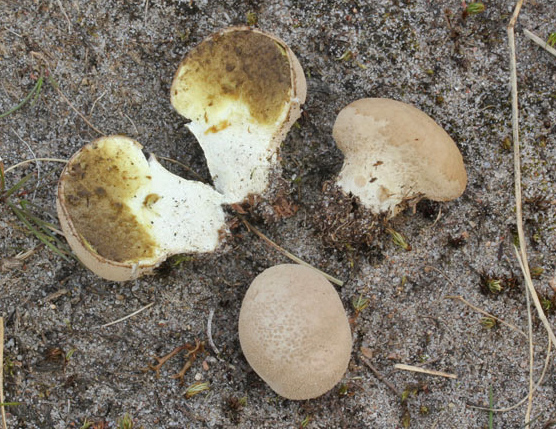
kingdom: Fungi
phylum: Basidiomycota
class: Agaricomycetes
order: Agaricales
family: Lycoperdaceae
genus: Lycoperdon
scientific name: Lycoperdon ericaeum
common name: hede-støvbold
